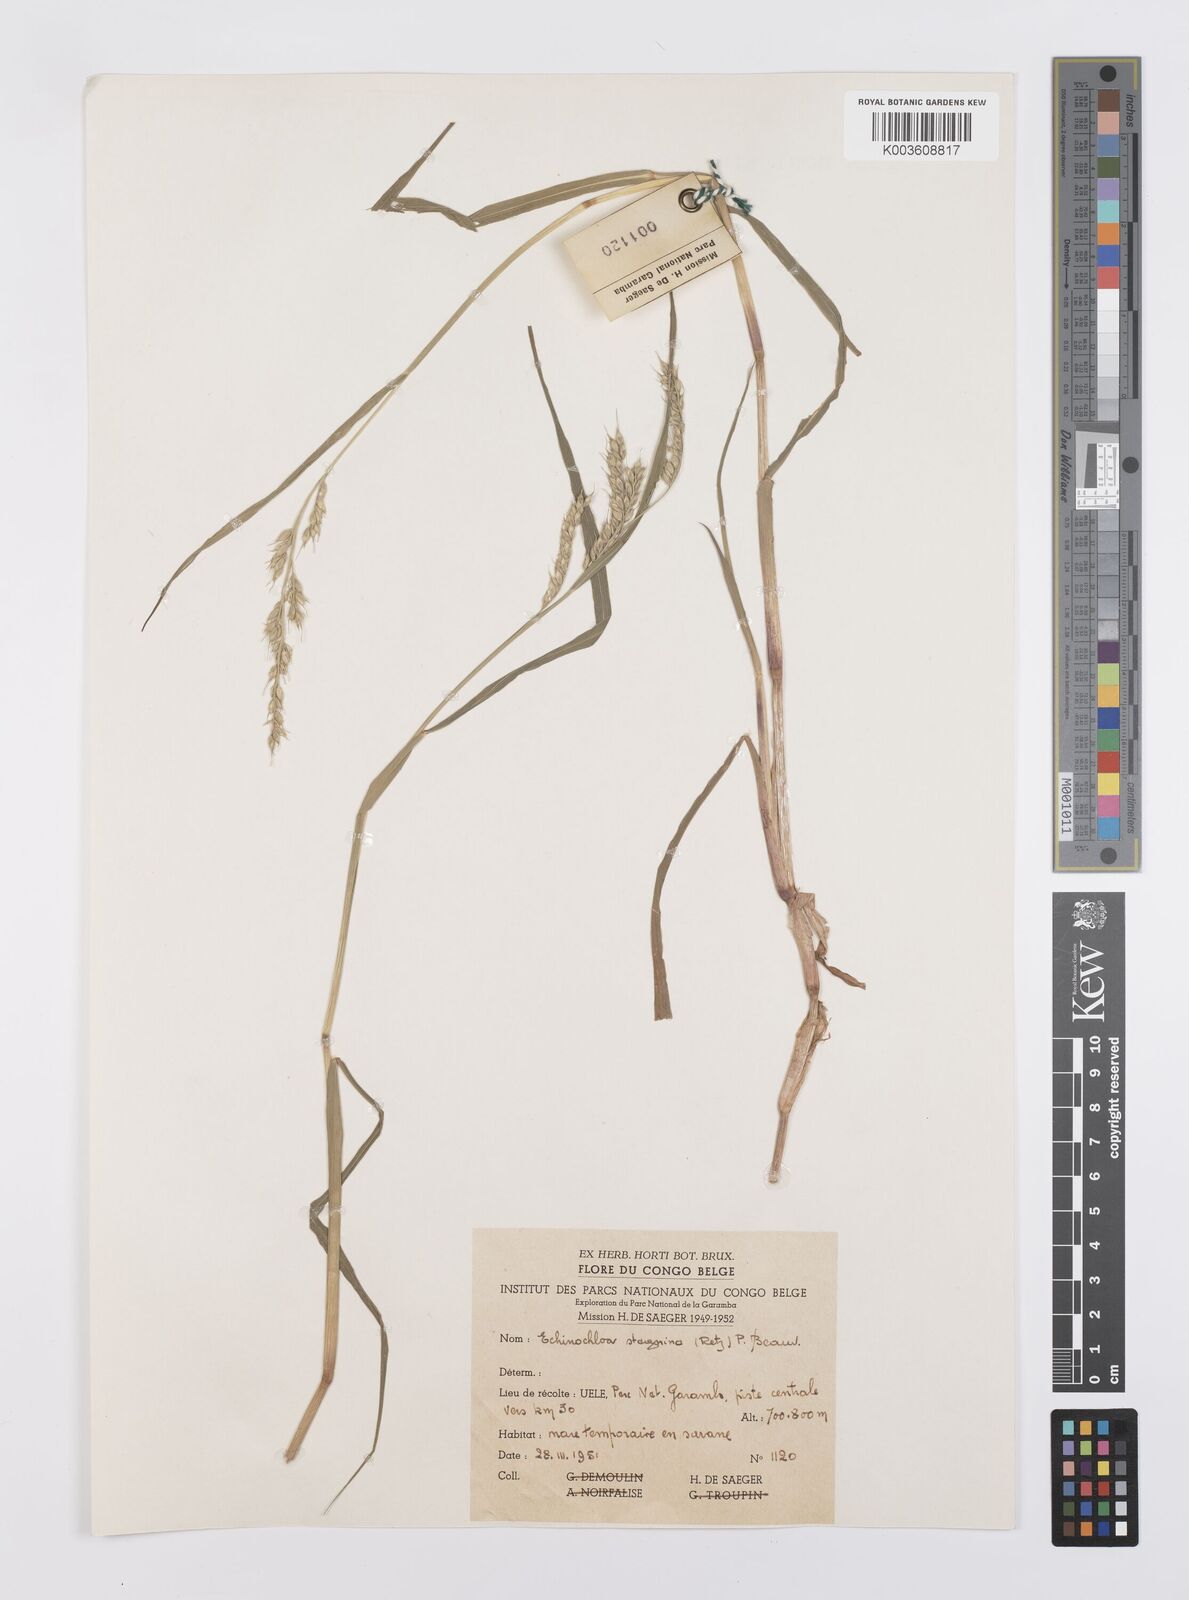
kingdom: Plantae
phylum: Tracheophyta
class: Liliopsida
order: Poales
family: Poaceae
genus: Echinochloa
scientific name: Echinochloa stagnina
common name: Burgu grass
